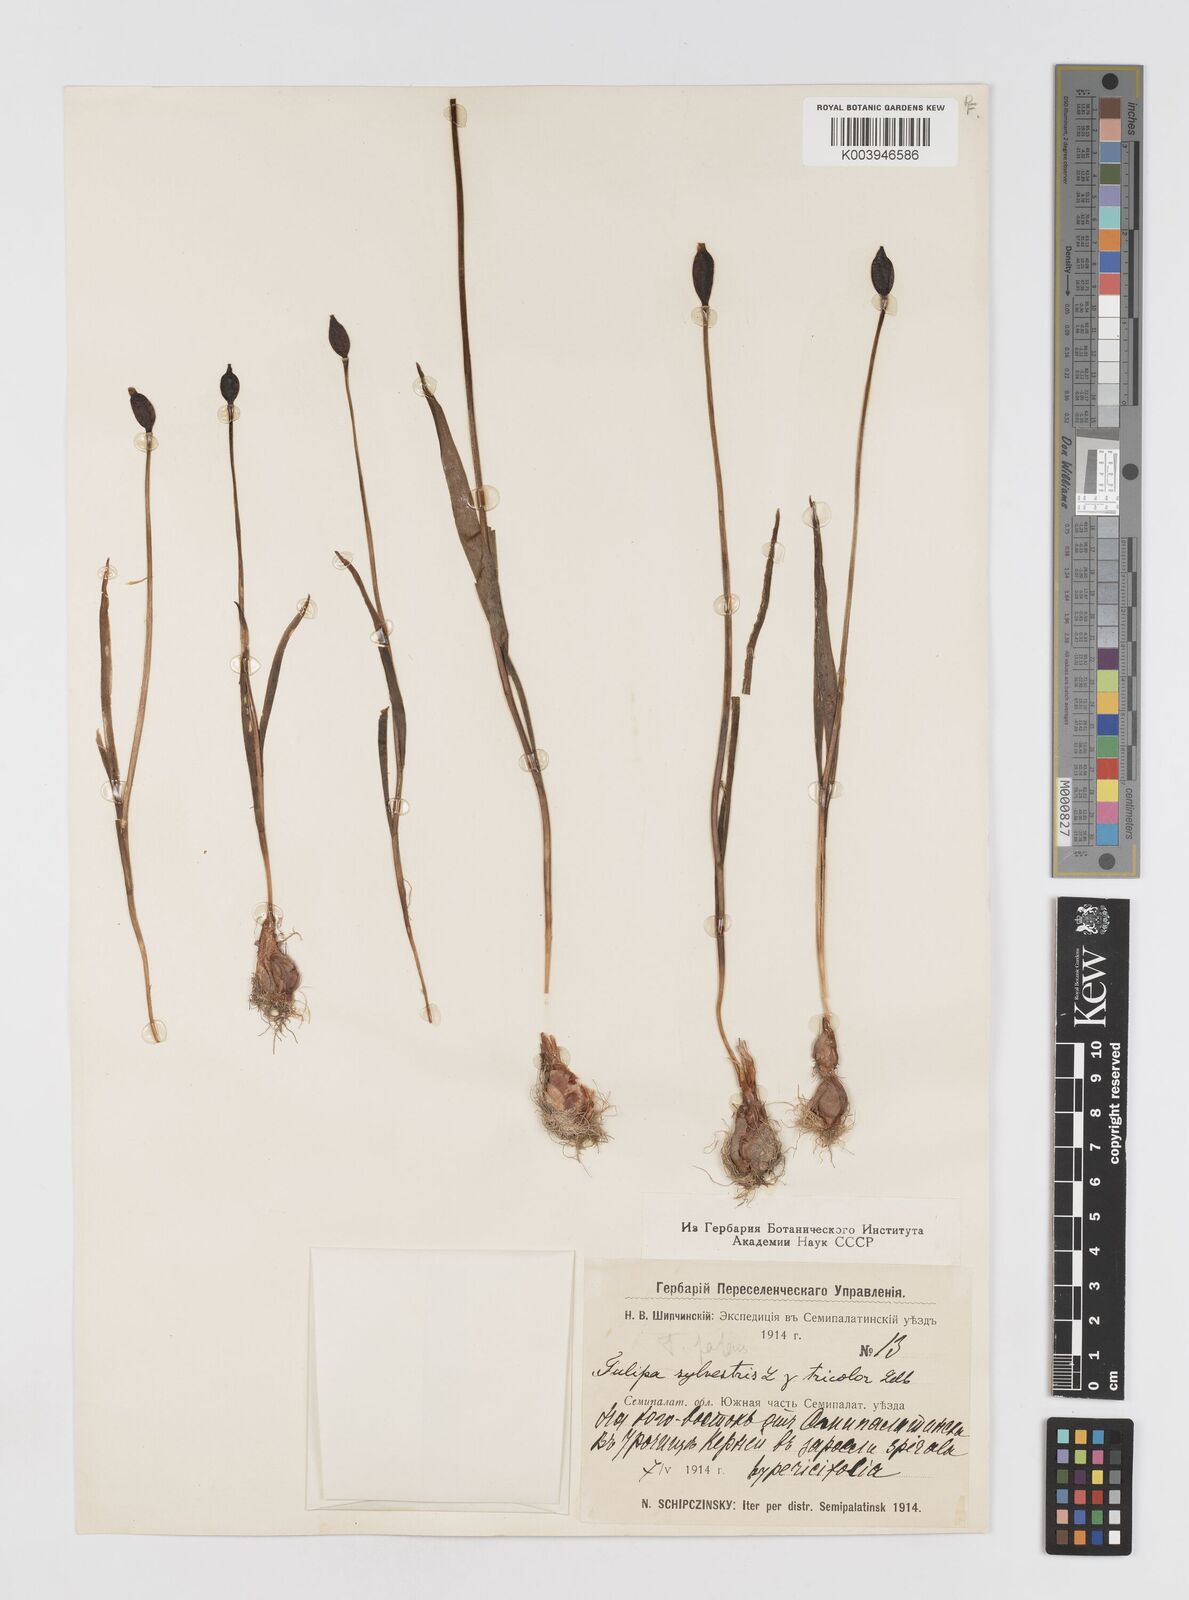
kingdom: Plantae
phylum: Tracheophyta
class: Liliopsida
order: Liliales
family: Liliaceae
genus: Tulipa
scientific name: Tulipa sylvestris
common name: Wild tulip
